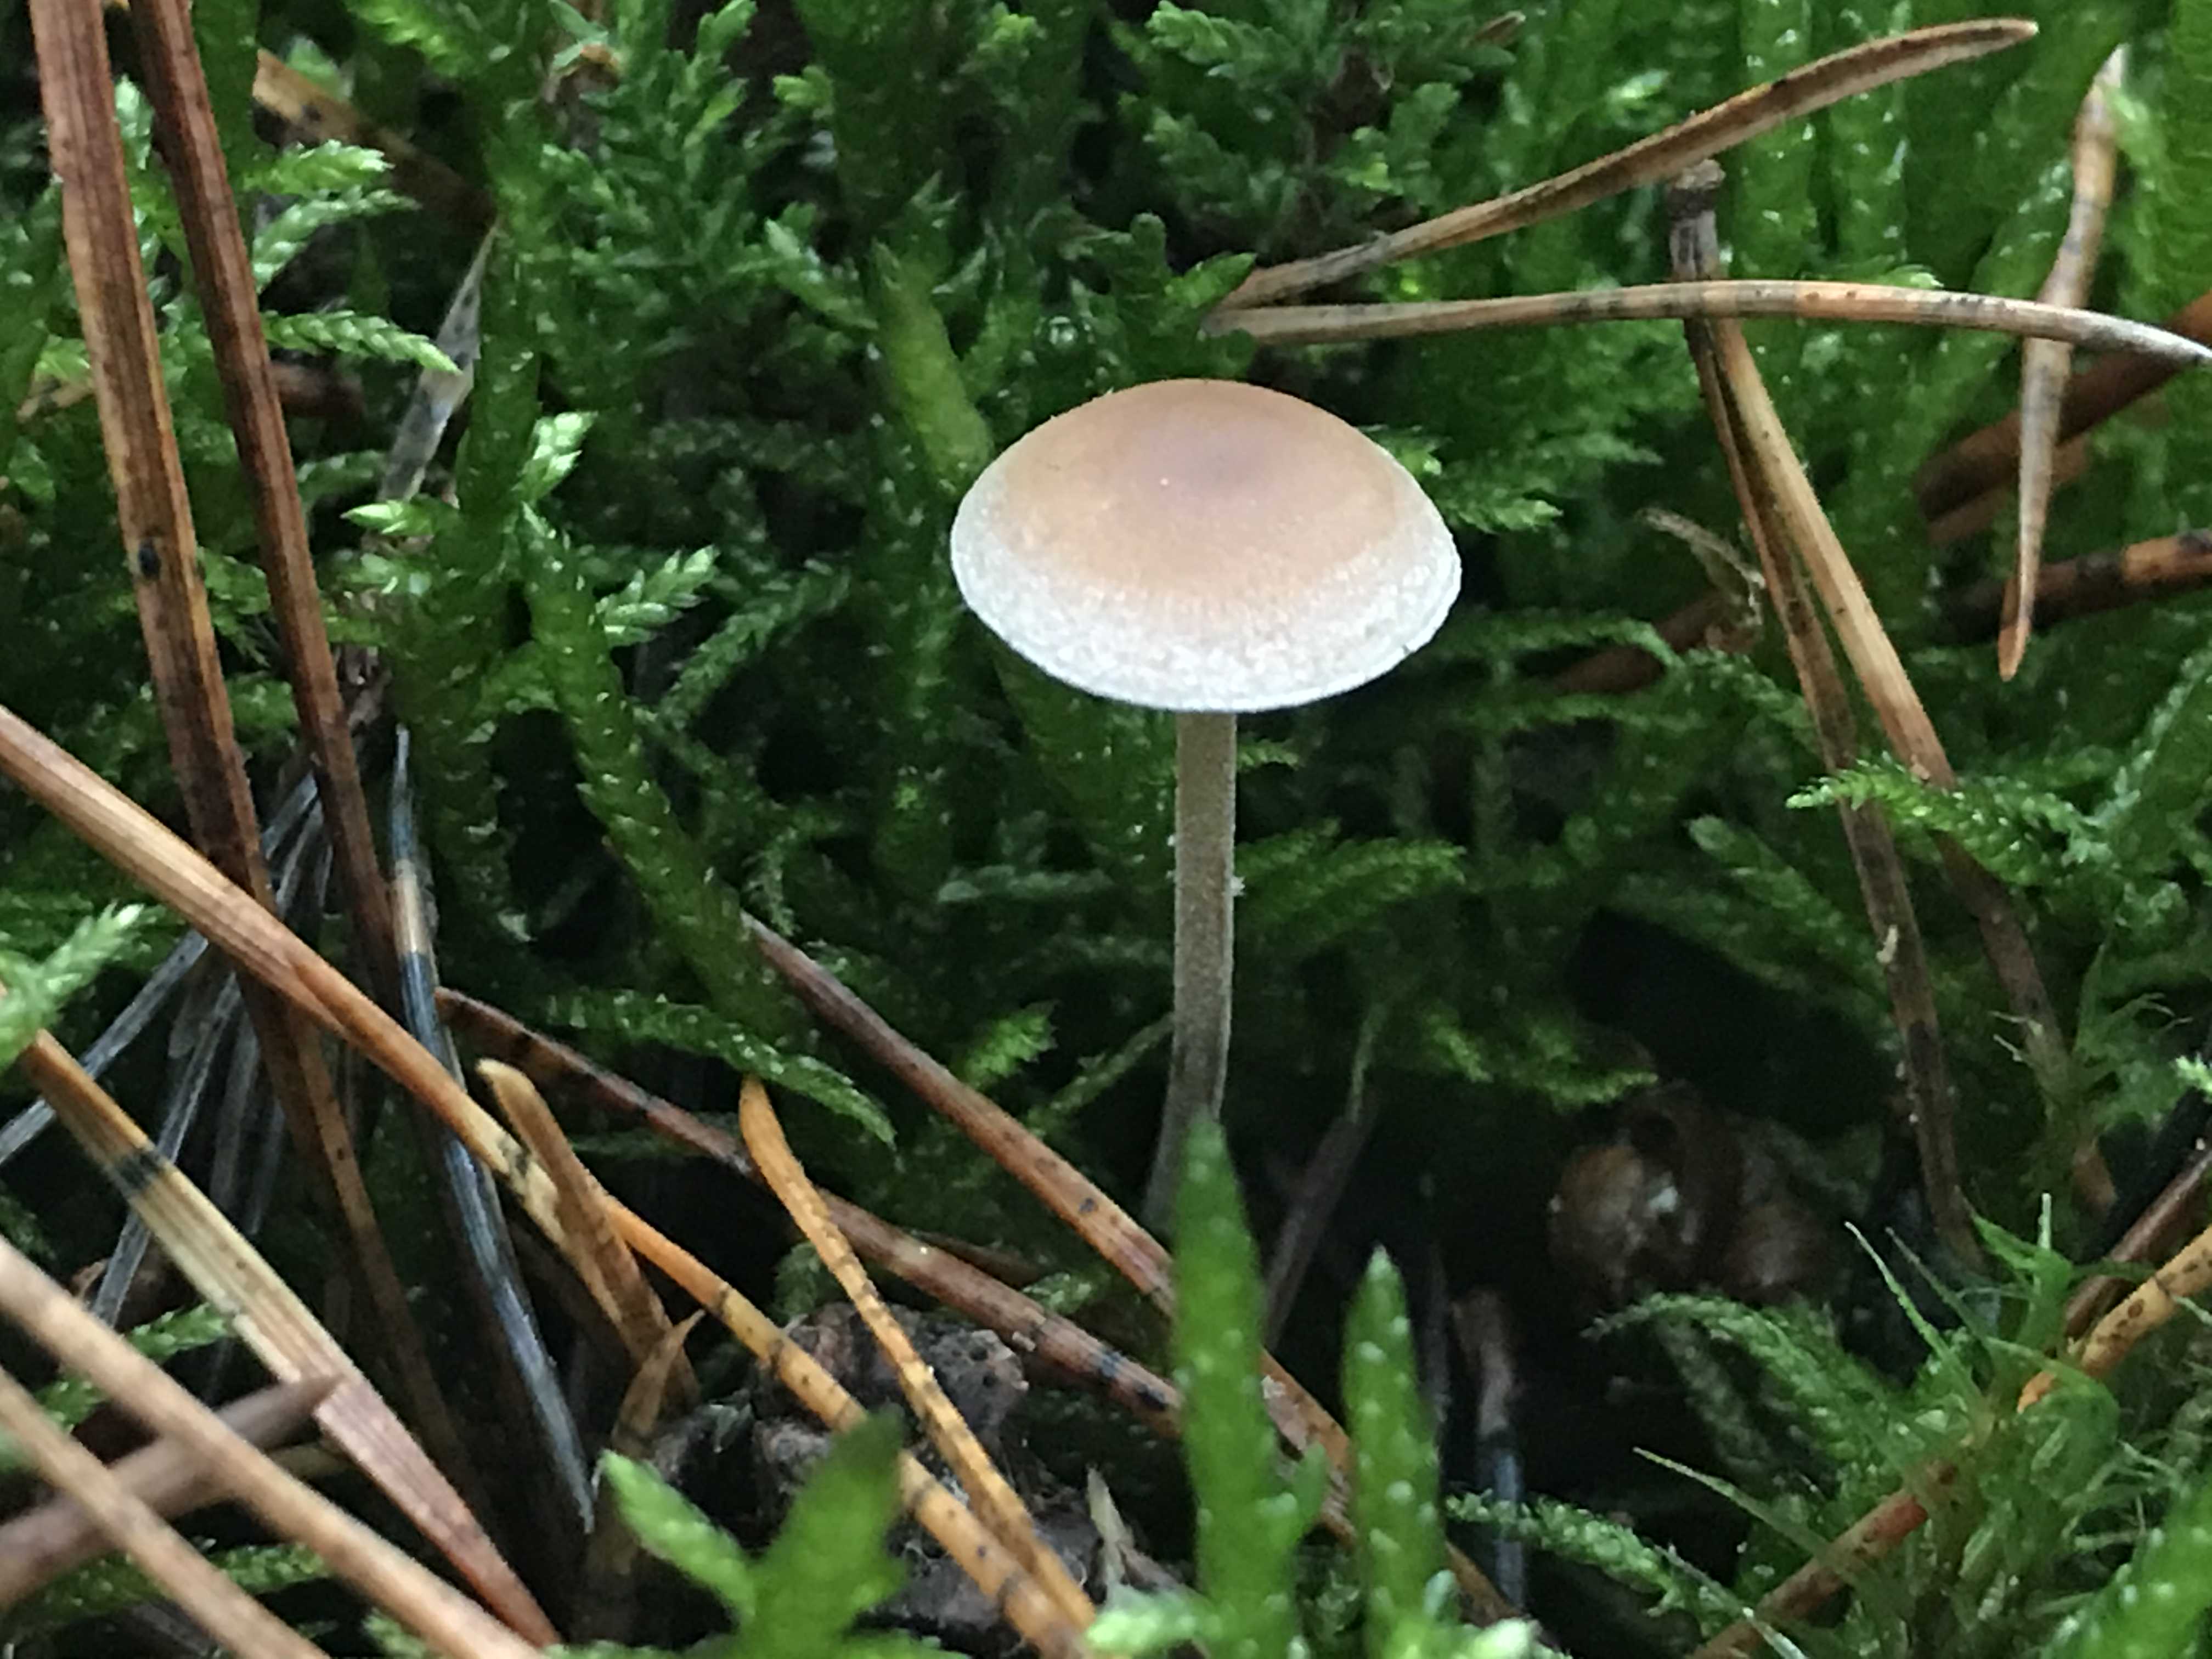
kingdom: Fungi
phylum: Basidiomycota
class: Agaricomycetes
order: Agaricales
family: Marasmiaceae
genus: Baeospora
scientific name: Baeospora myosura
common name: koglebruskhat
